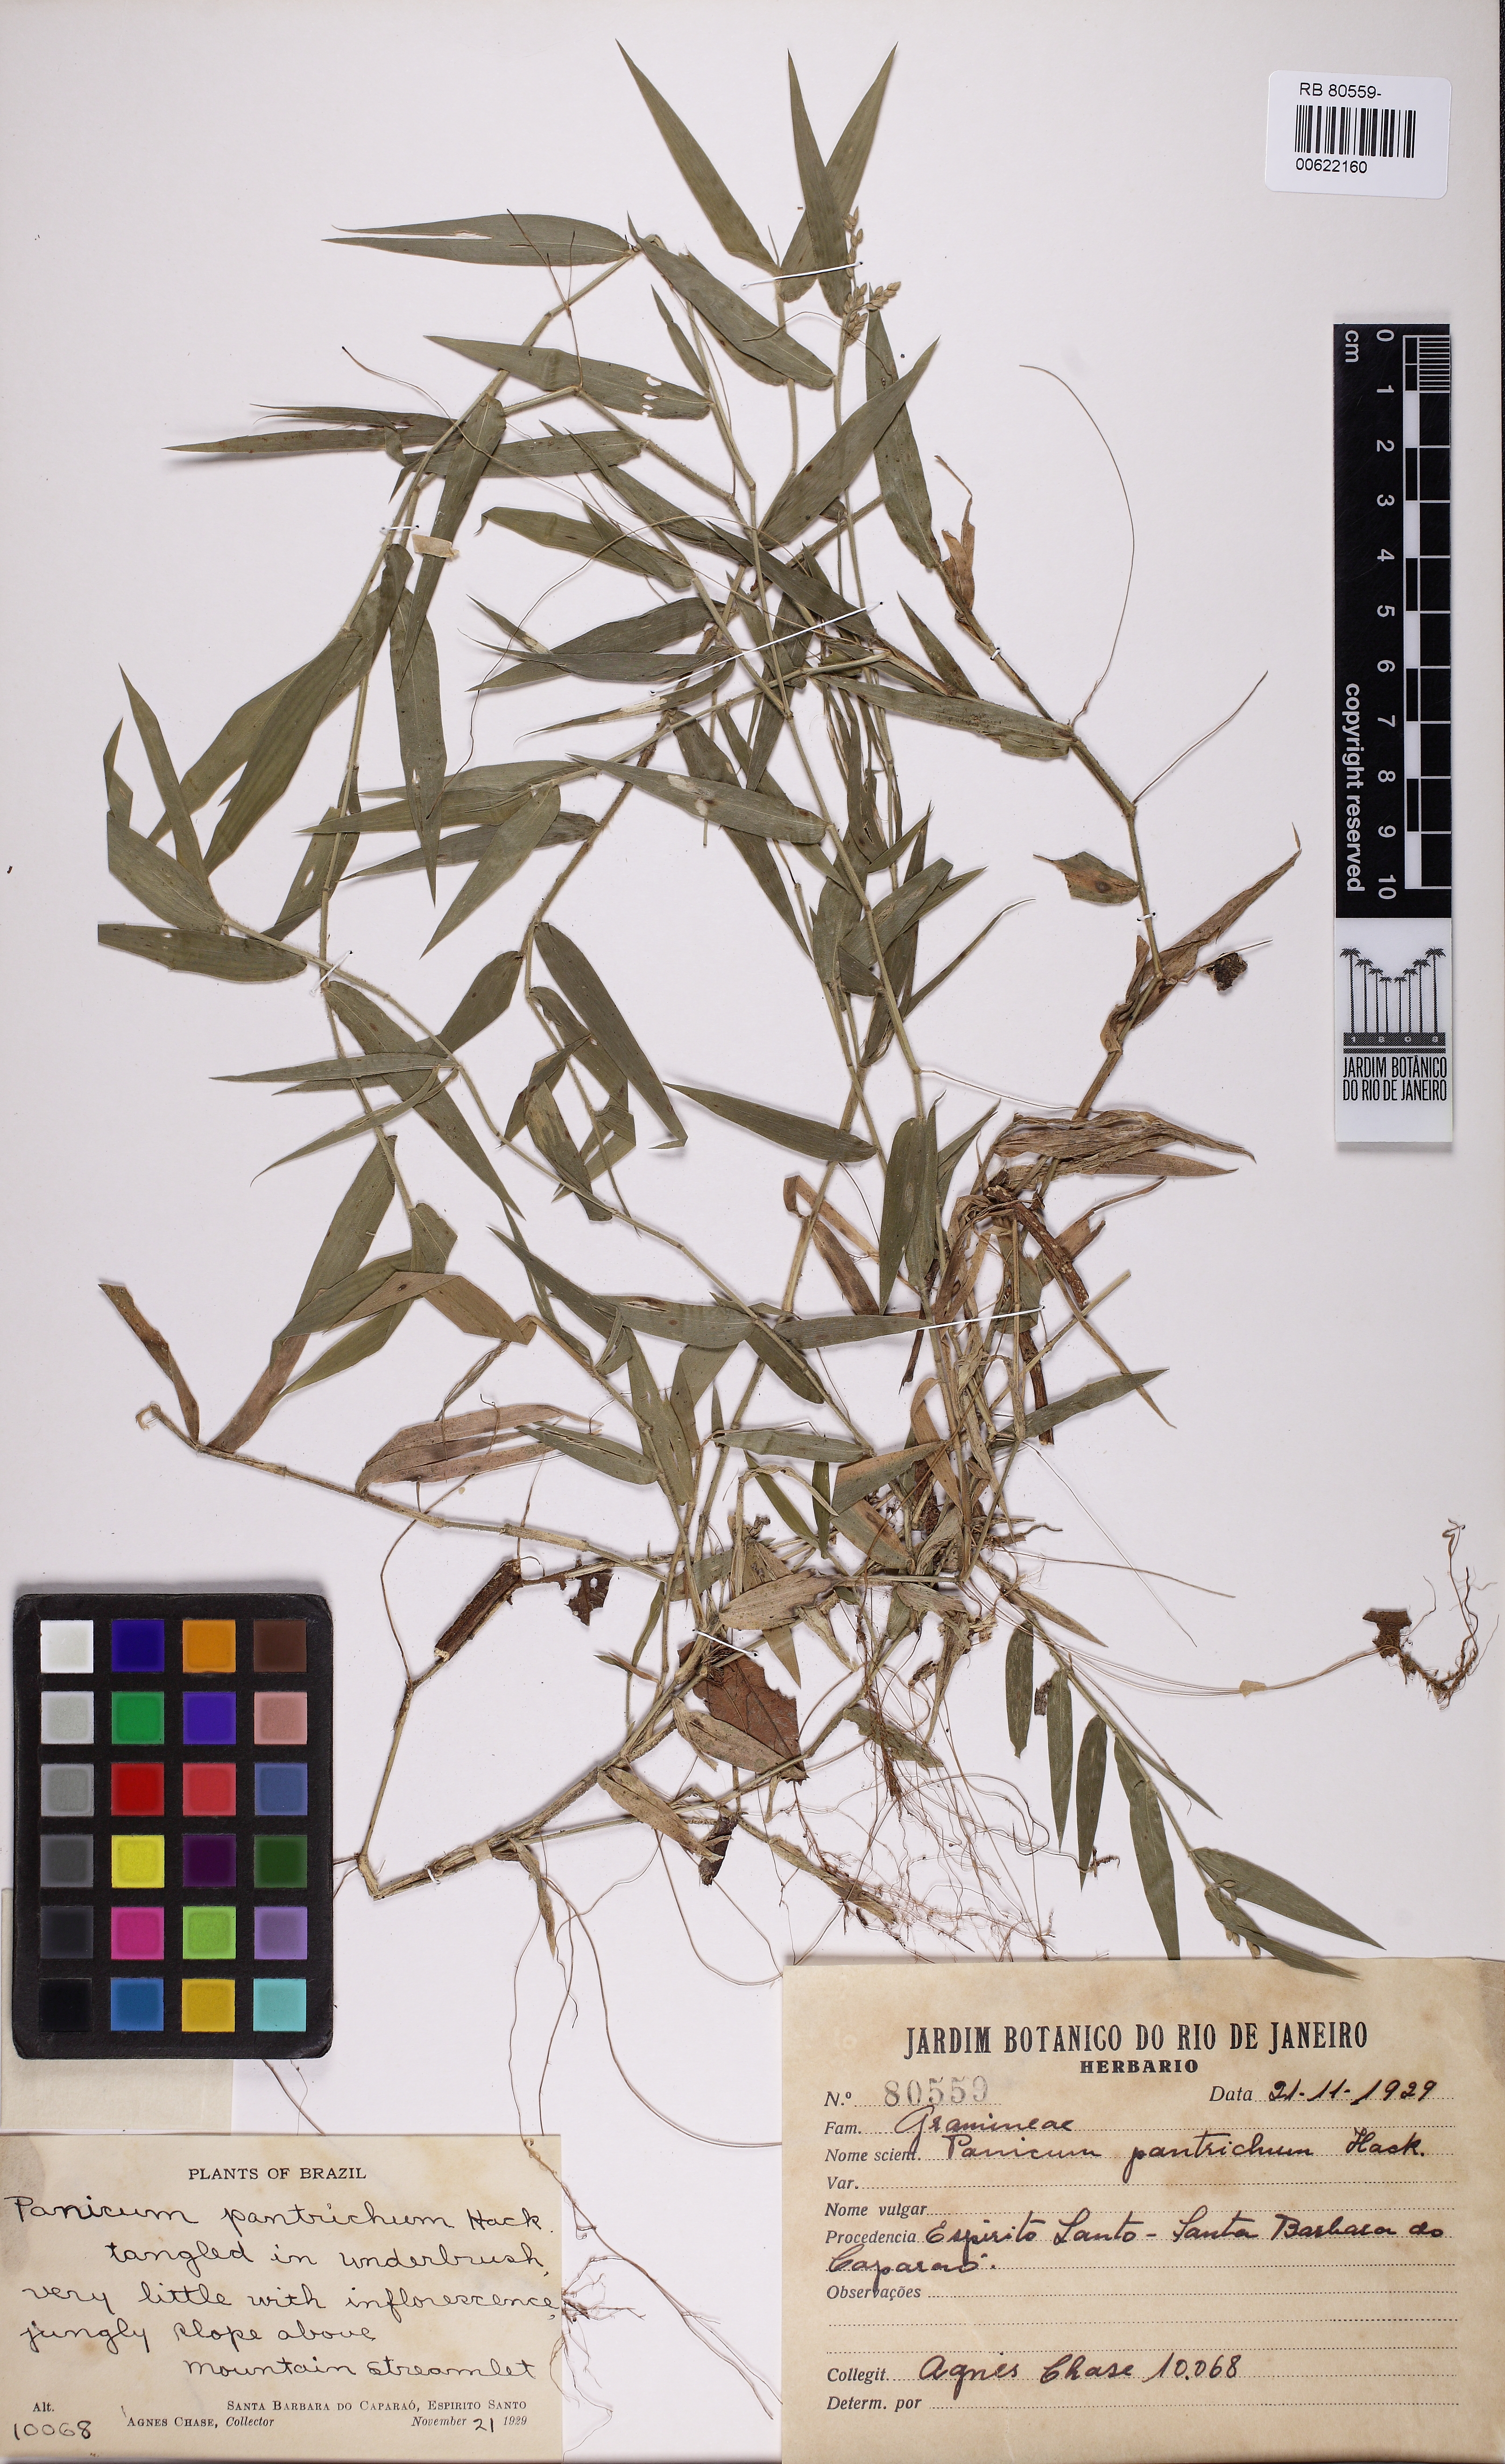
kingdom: Plantae
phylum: Tracheophyta
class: Liliopsida
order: Poales
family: Poaceae
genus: Parodiophyllochloa
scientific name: Parodiophyllochloa pantricha
